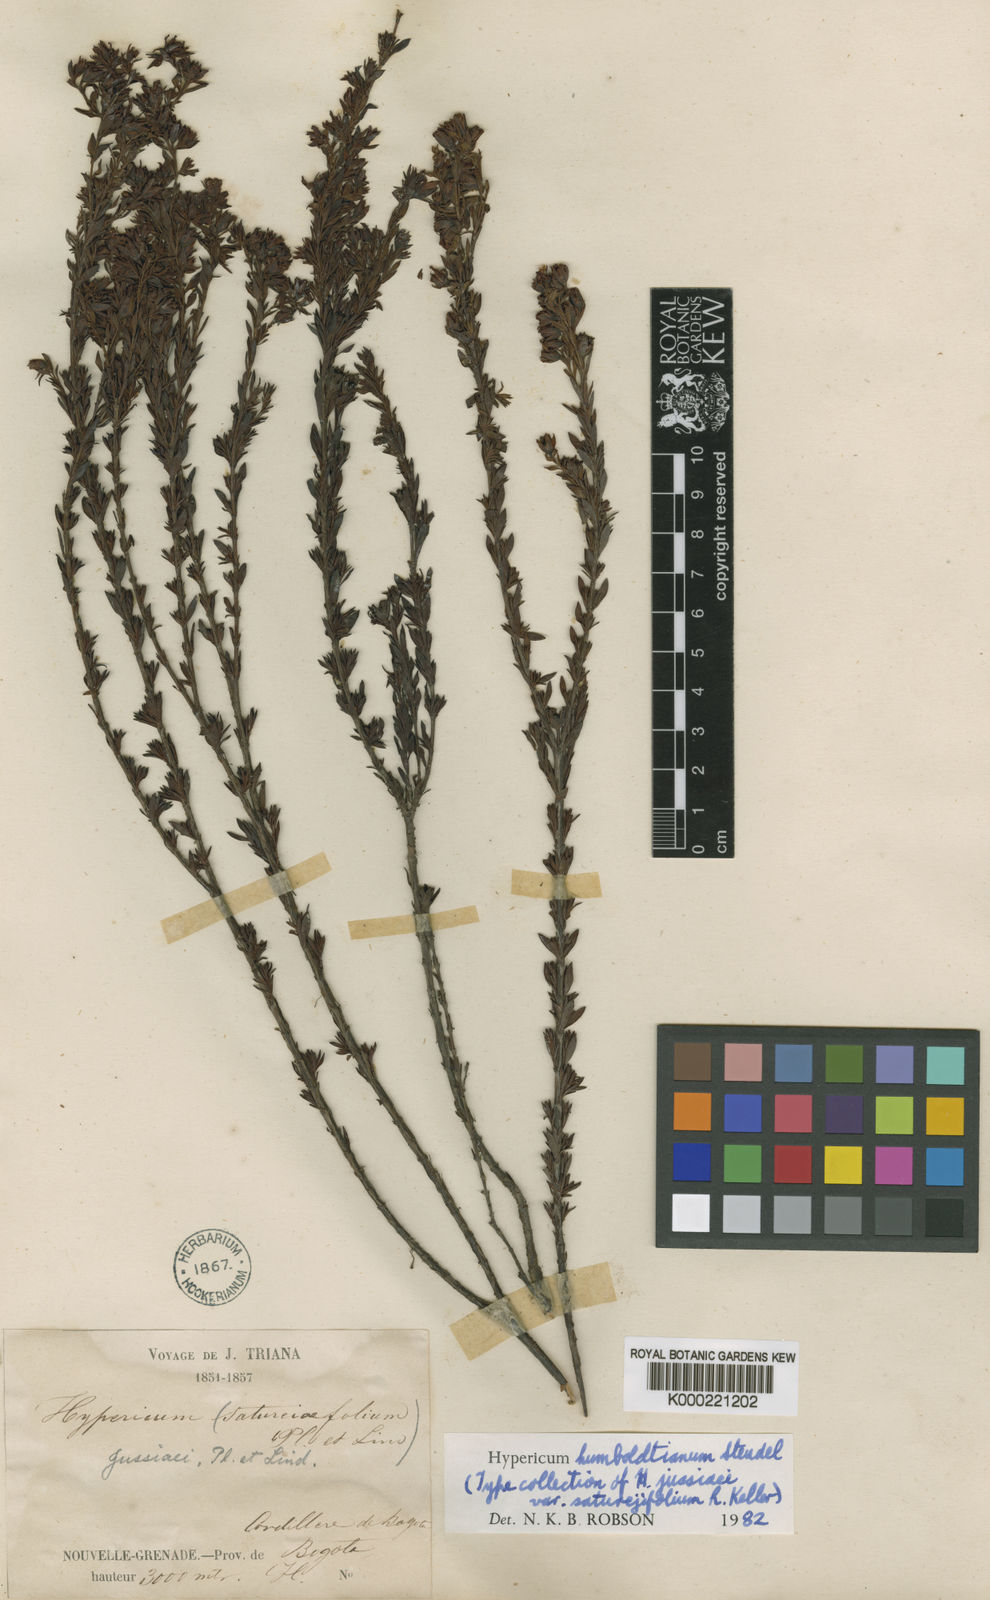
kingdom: Plantae
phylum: Tracheophyta
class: Magnoliopsida
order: Malpighiales
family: Hypericaceae
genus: Hypericum
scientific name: Hypericum humboldtianum
